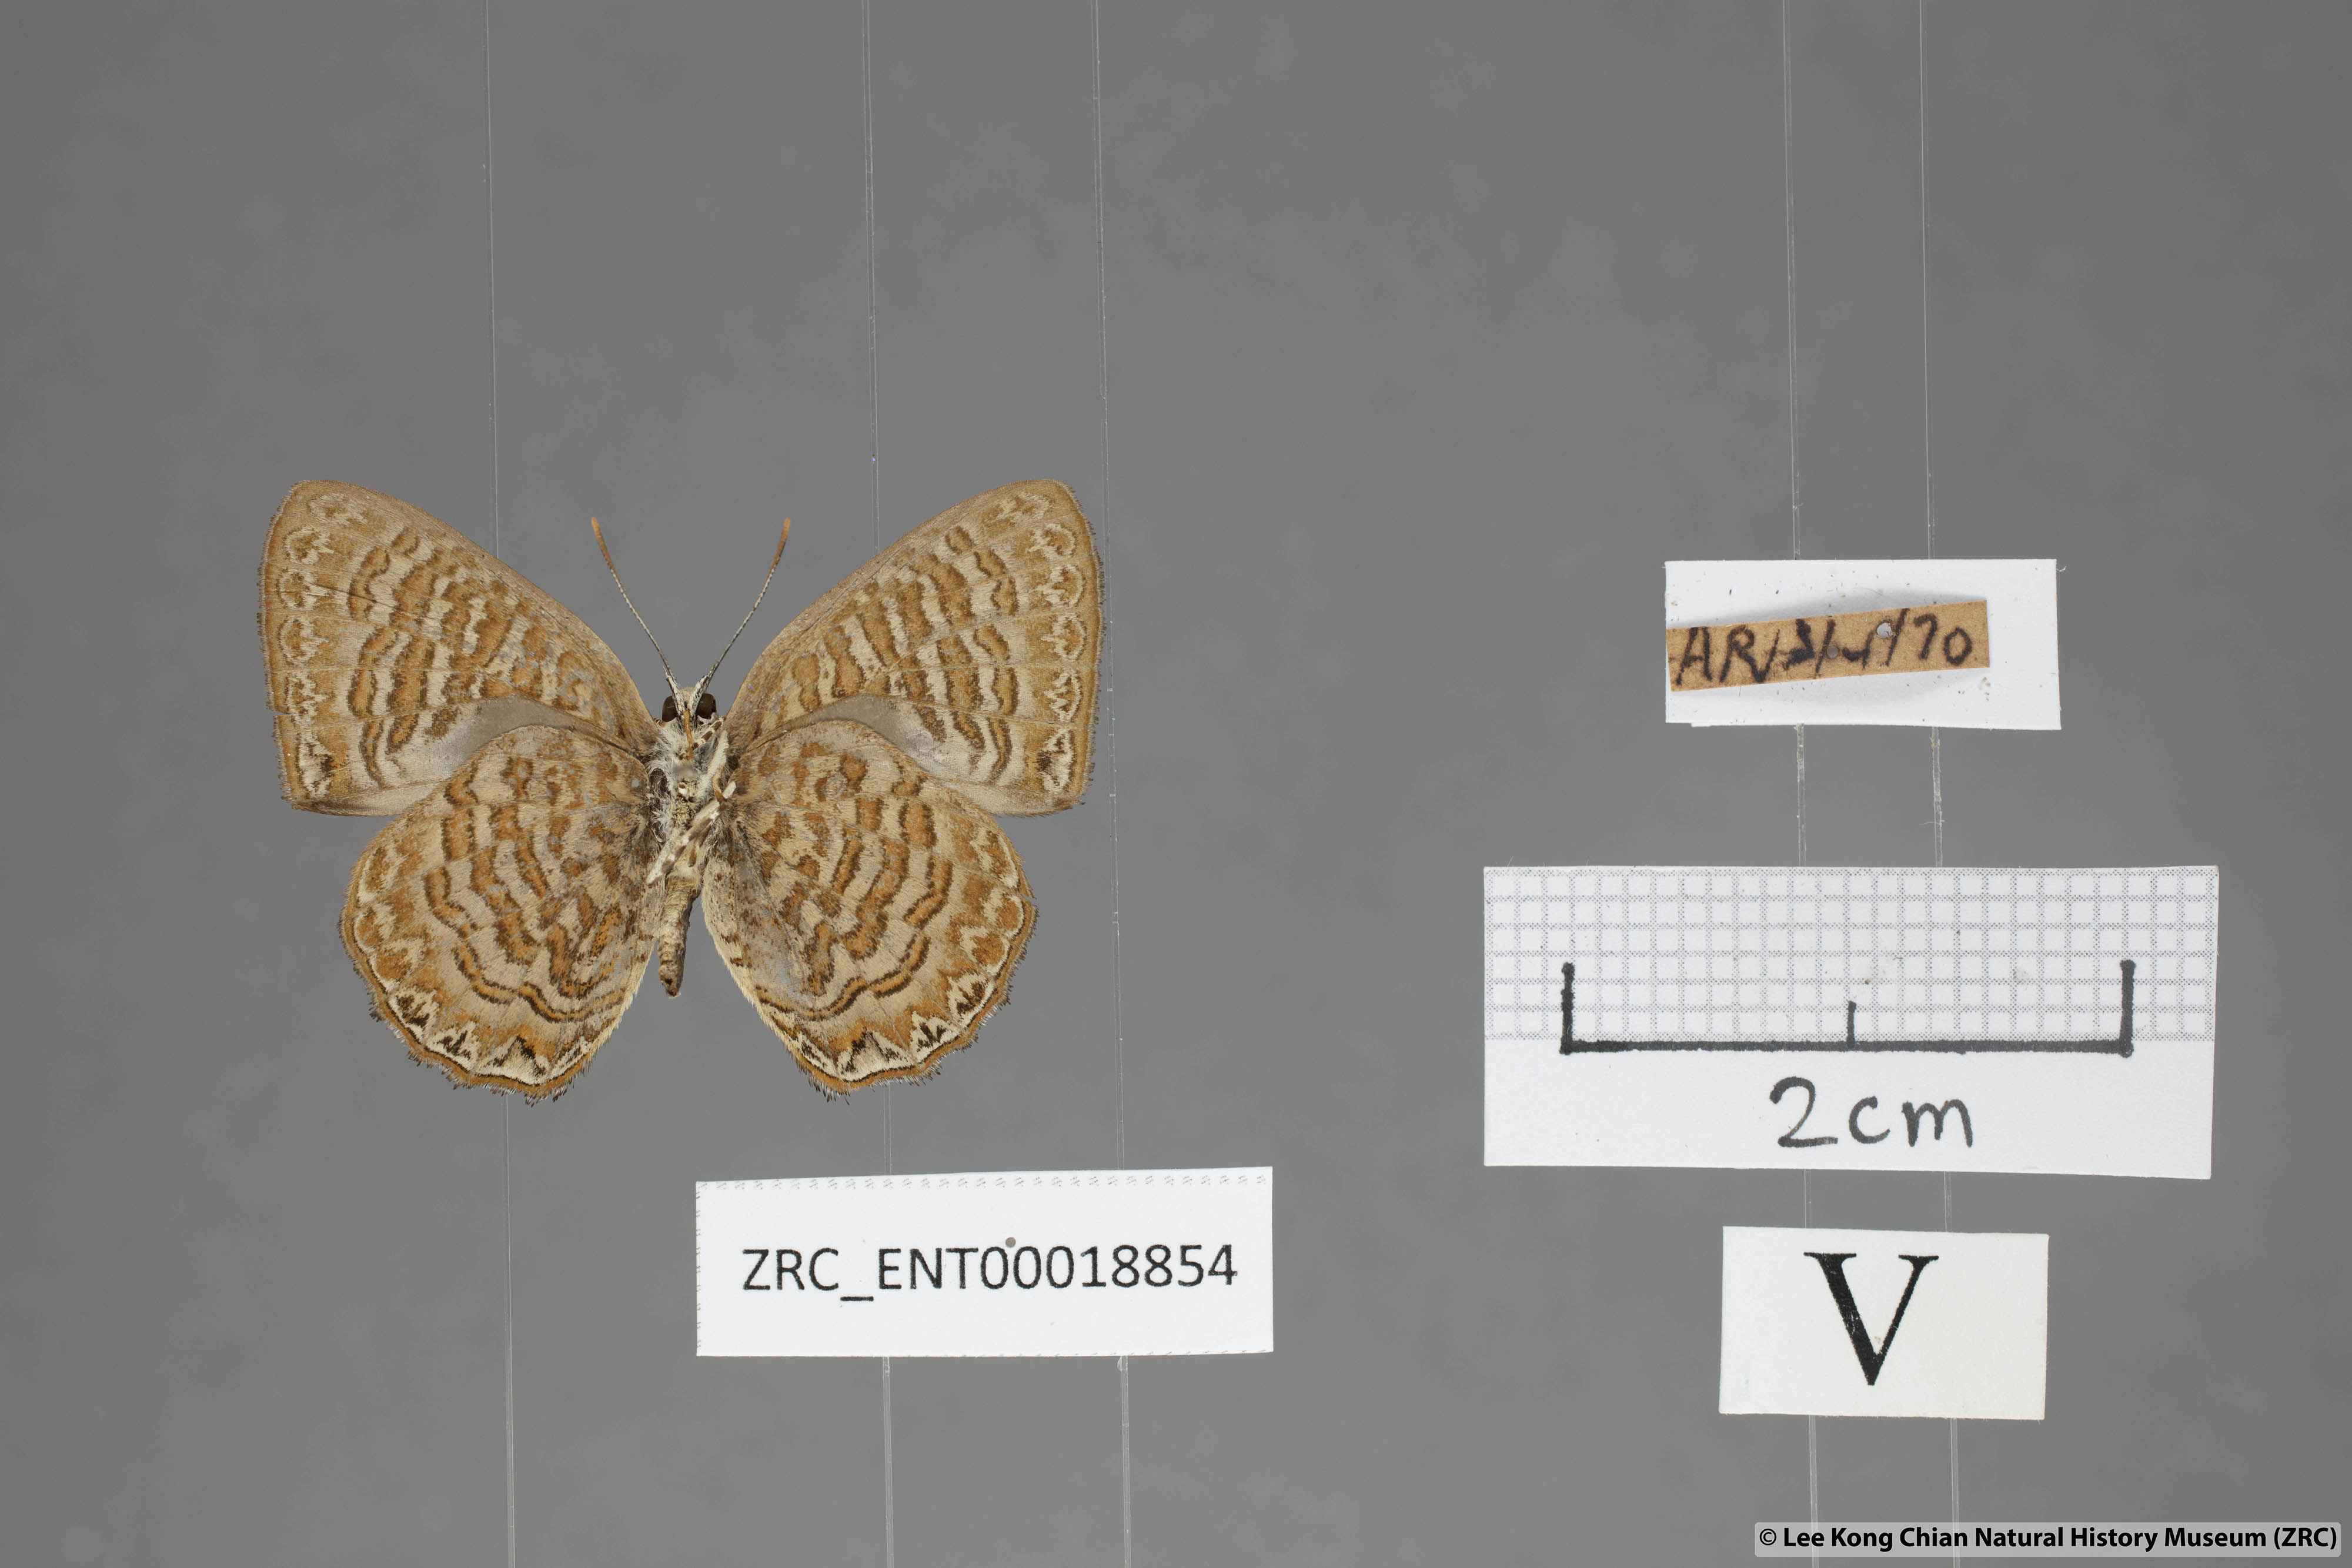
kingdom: Animalia
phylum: Arthropoda
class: Insecta
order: Lepidoptera
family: Lycaenidae
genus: Poritia
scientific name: Poritia sumatrae
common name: Sumatran gem
